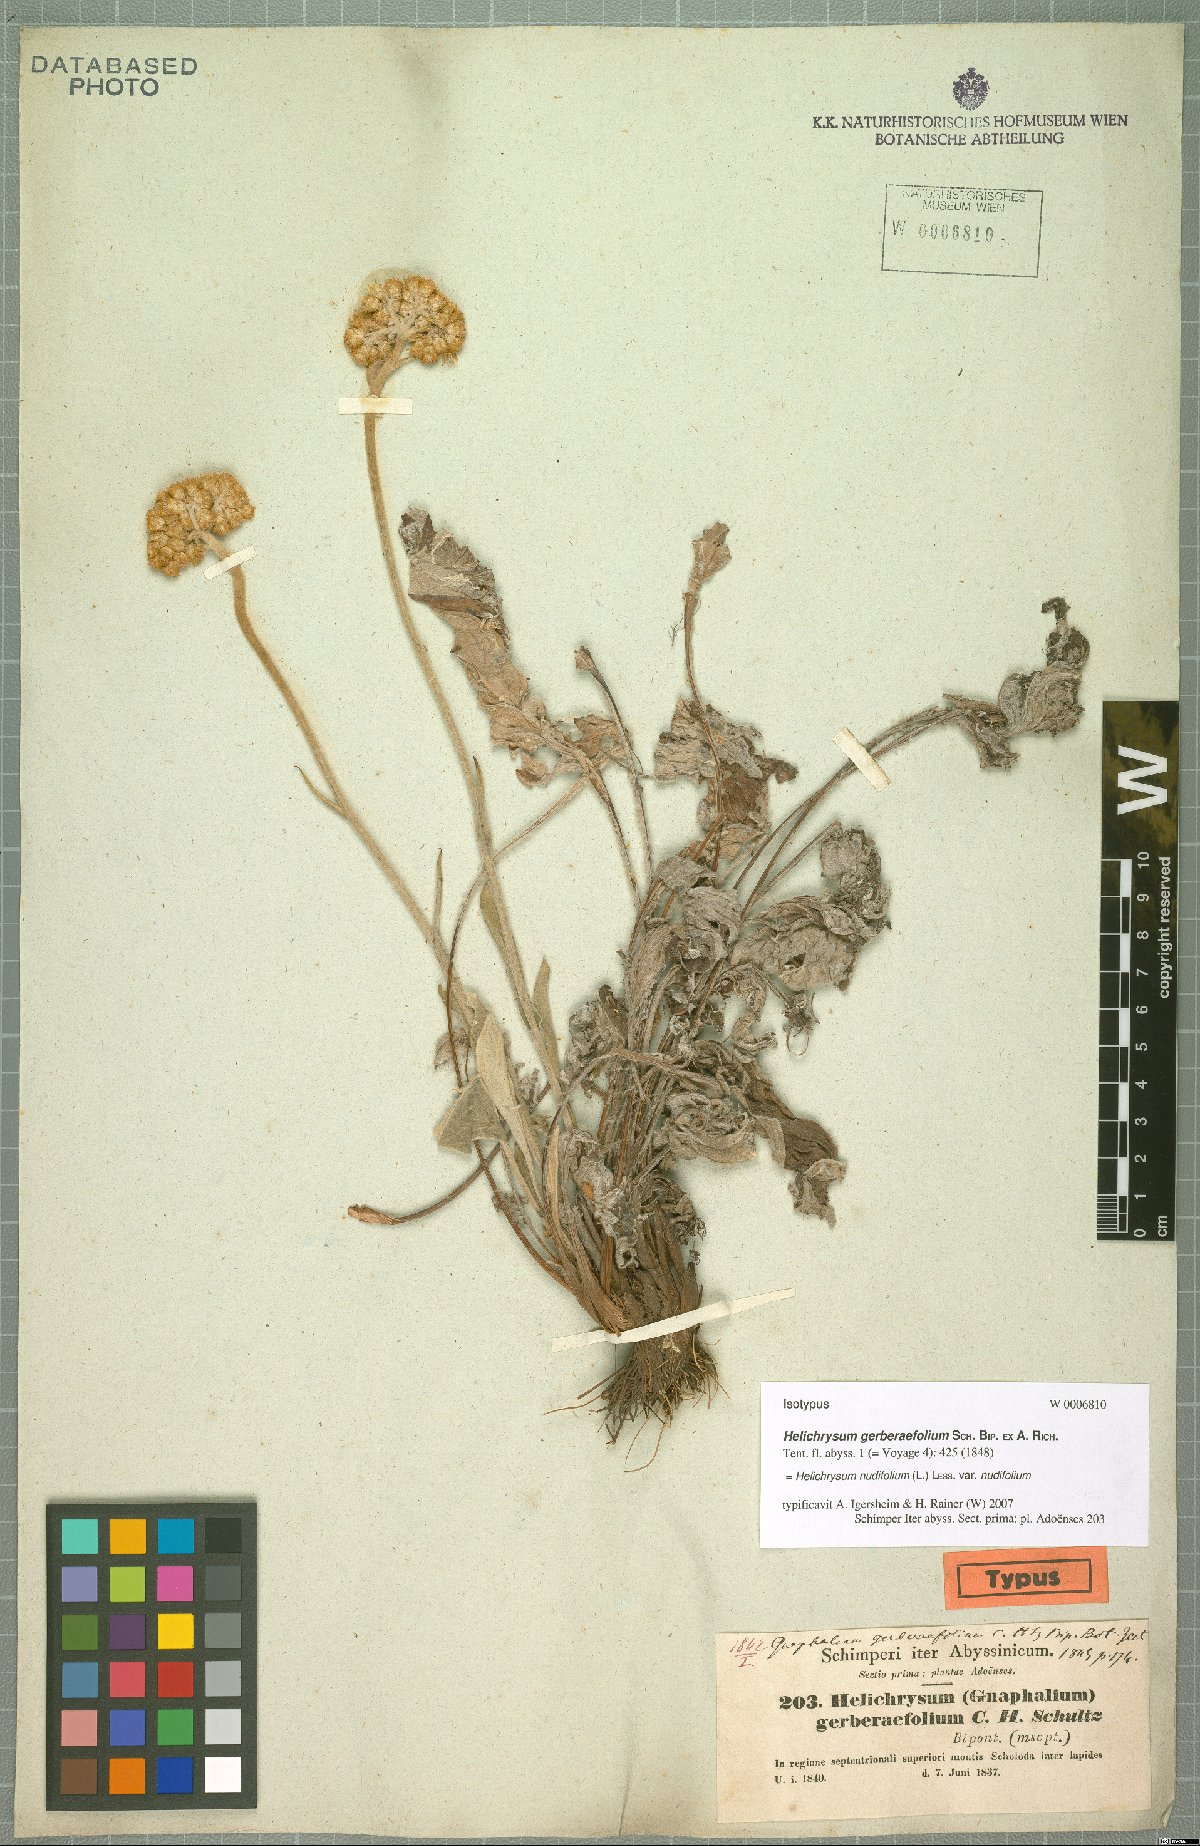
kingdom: Plantae
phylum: Tracheophyta
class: Magnoliopsida
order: Asterales
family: Asteraceae
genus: Helichrysum
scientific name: Helichrysum nudifolium
